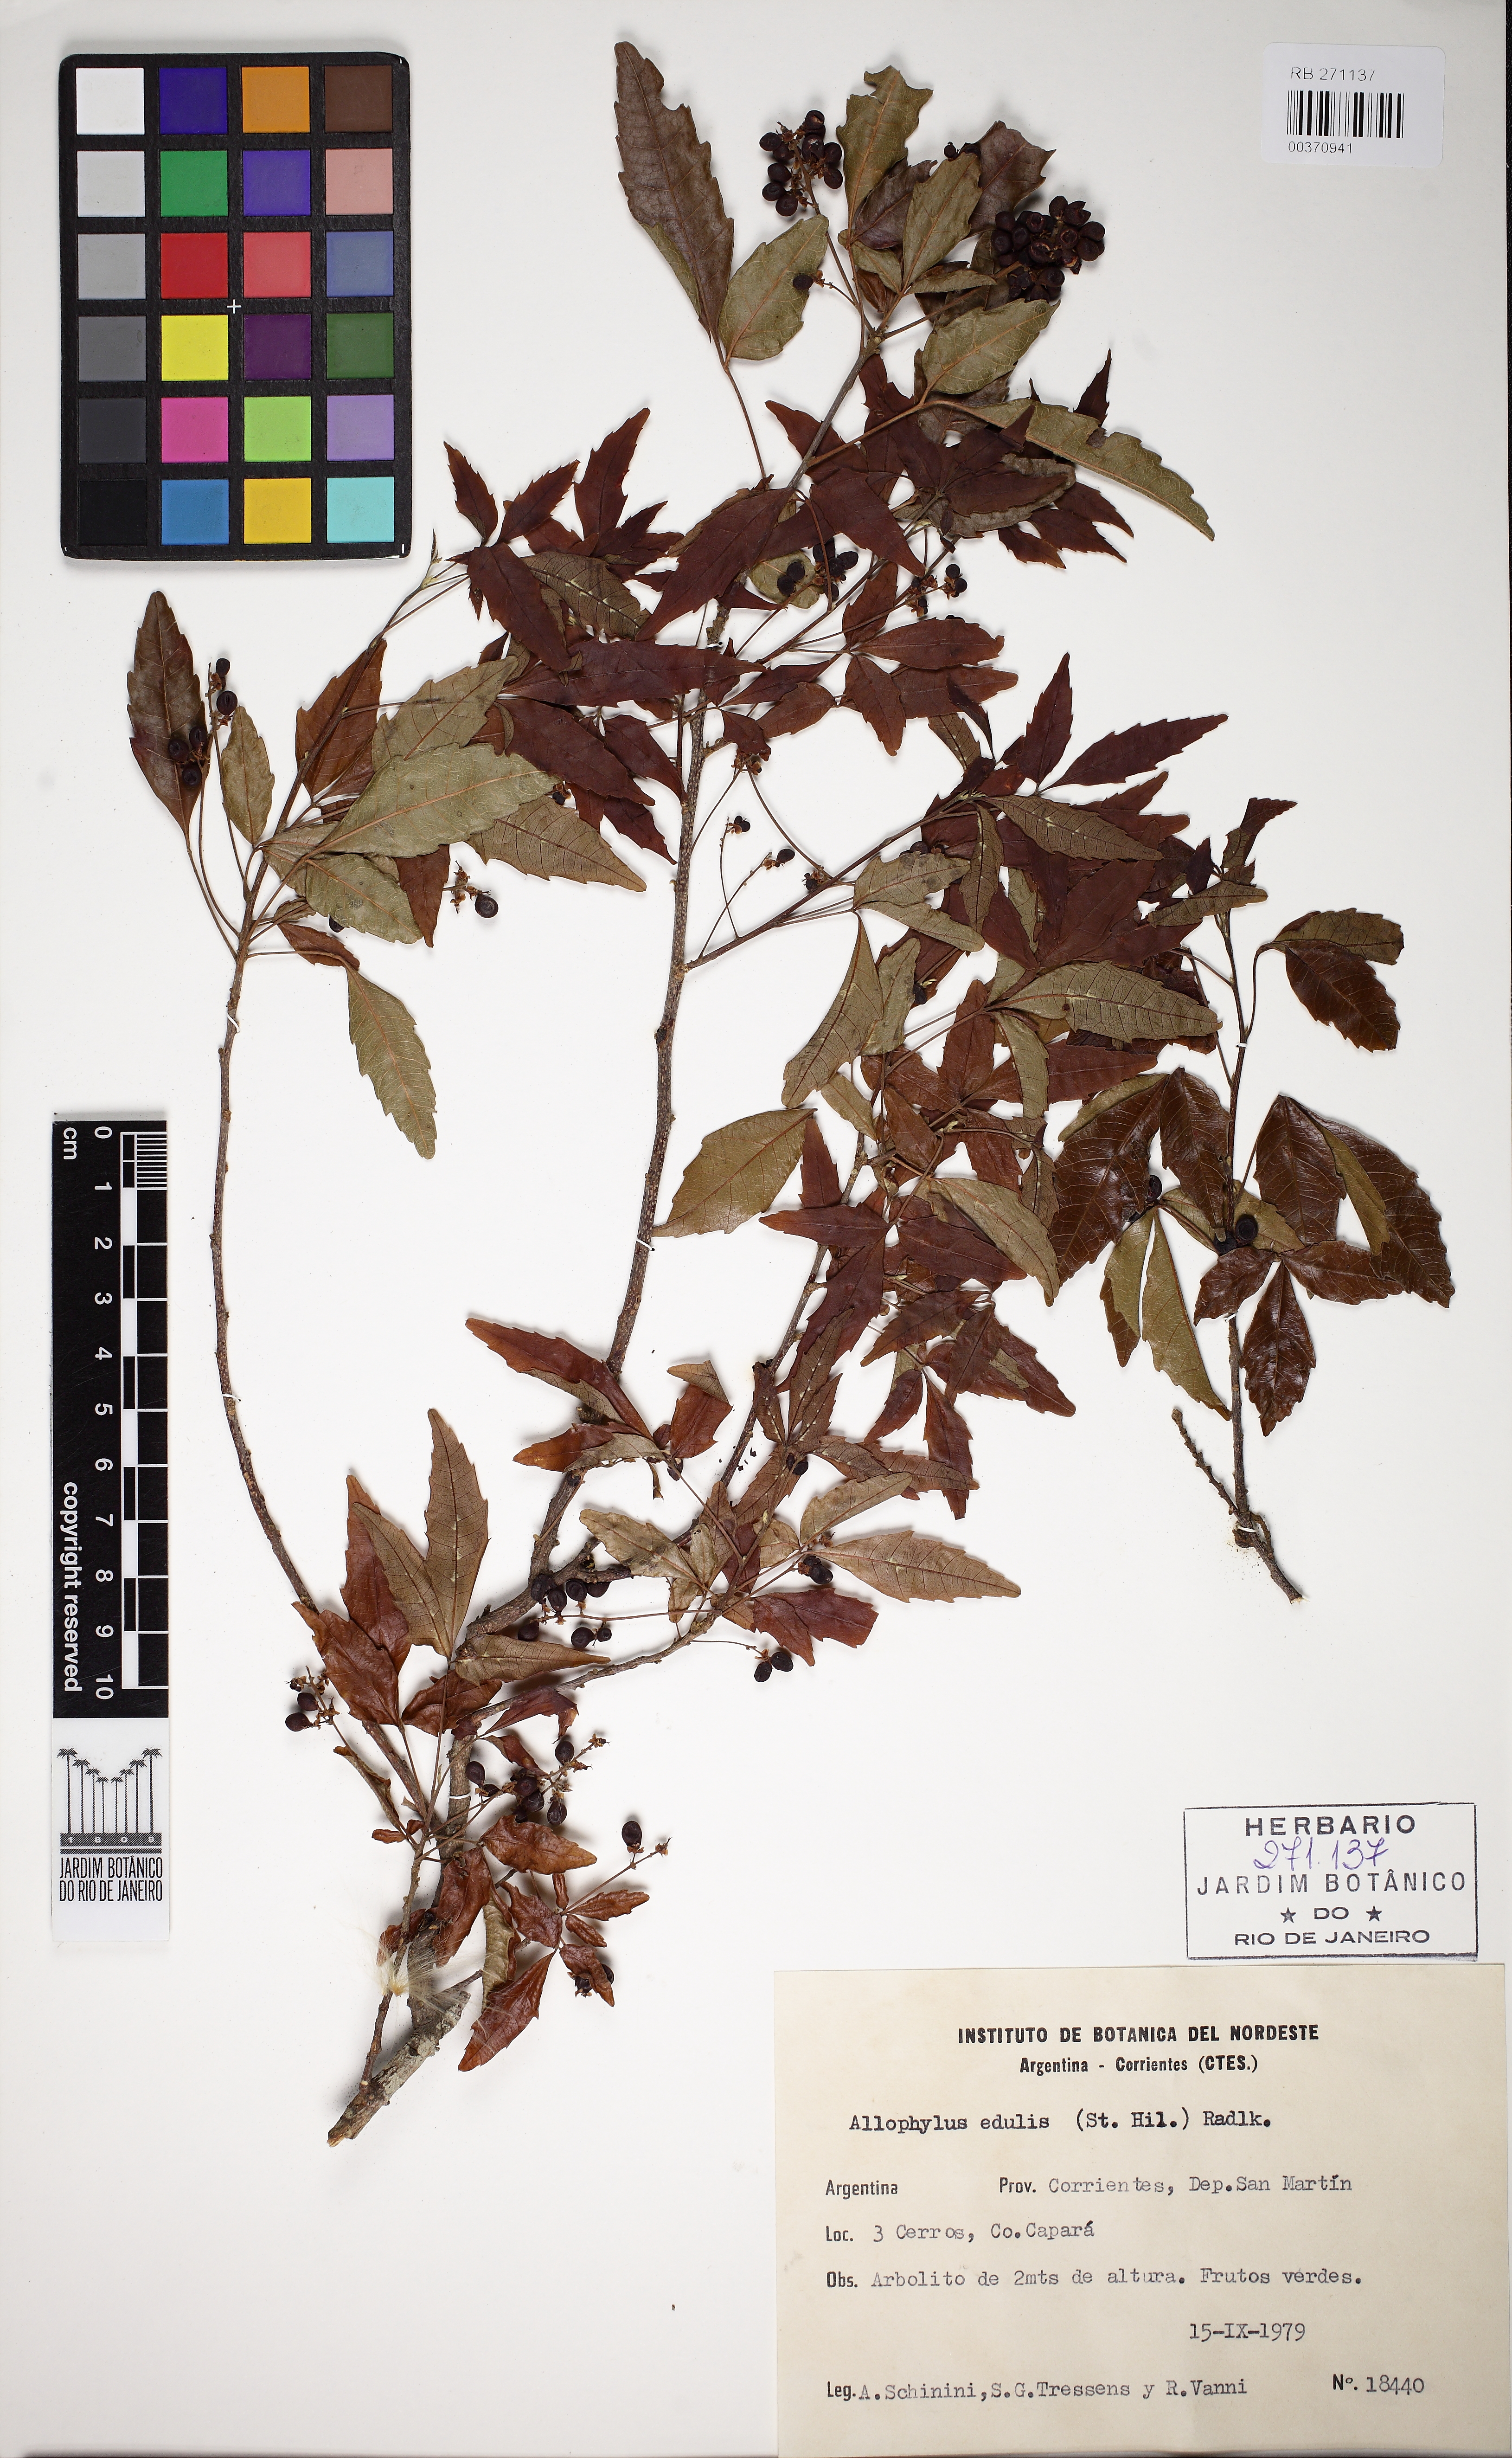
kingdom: Plantae
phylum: Tracheophyta
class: Magnoliopsida
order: Sapindales
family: Sapindaceae
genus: Allophylus
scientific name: Allophylus edulis
